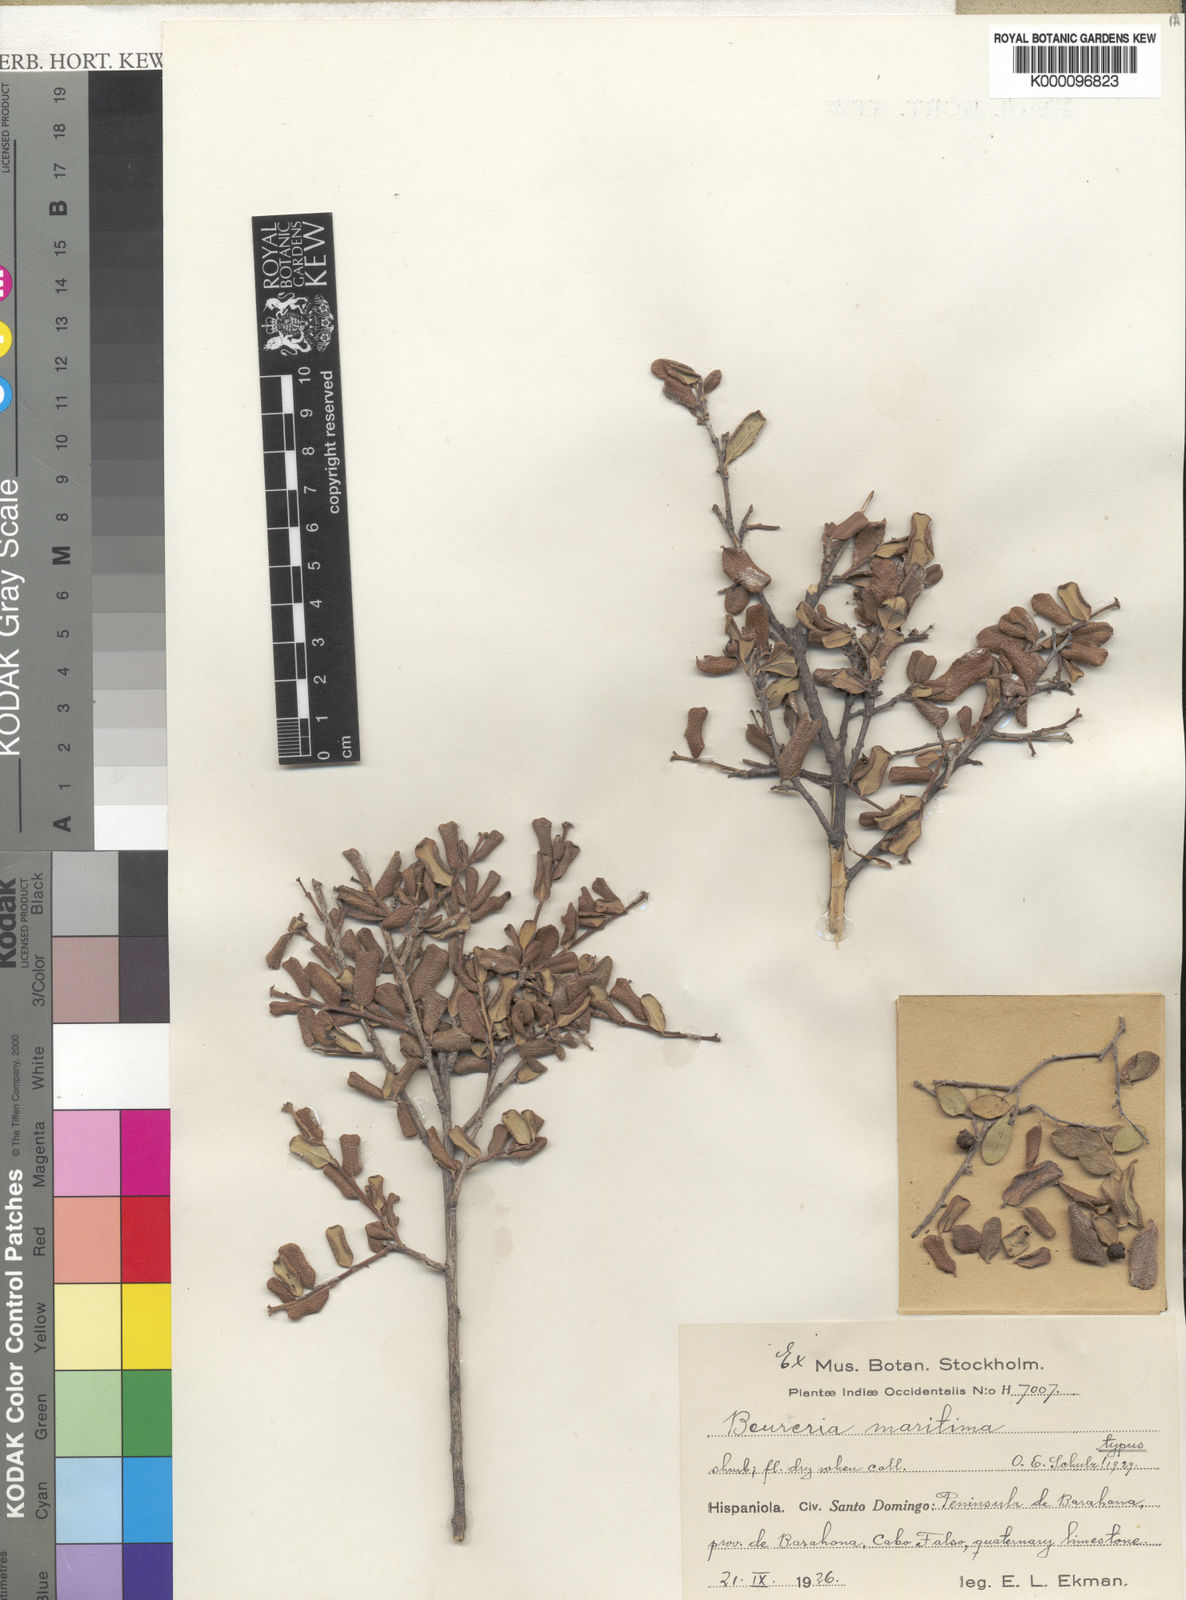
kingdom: Plantae
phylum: Tracheophyta
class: Magnoliopsida
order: Boraginales
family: Ehretiaceae
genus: Bourreria
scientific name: Bourreria virgata
